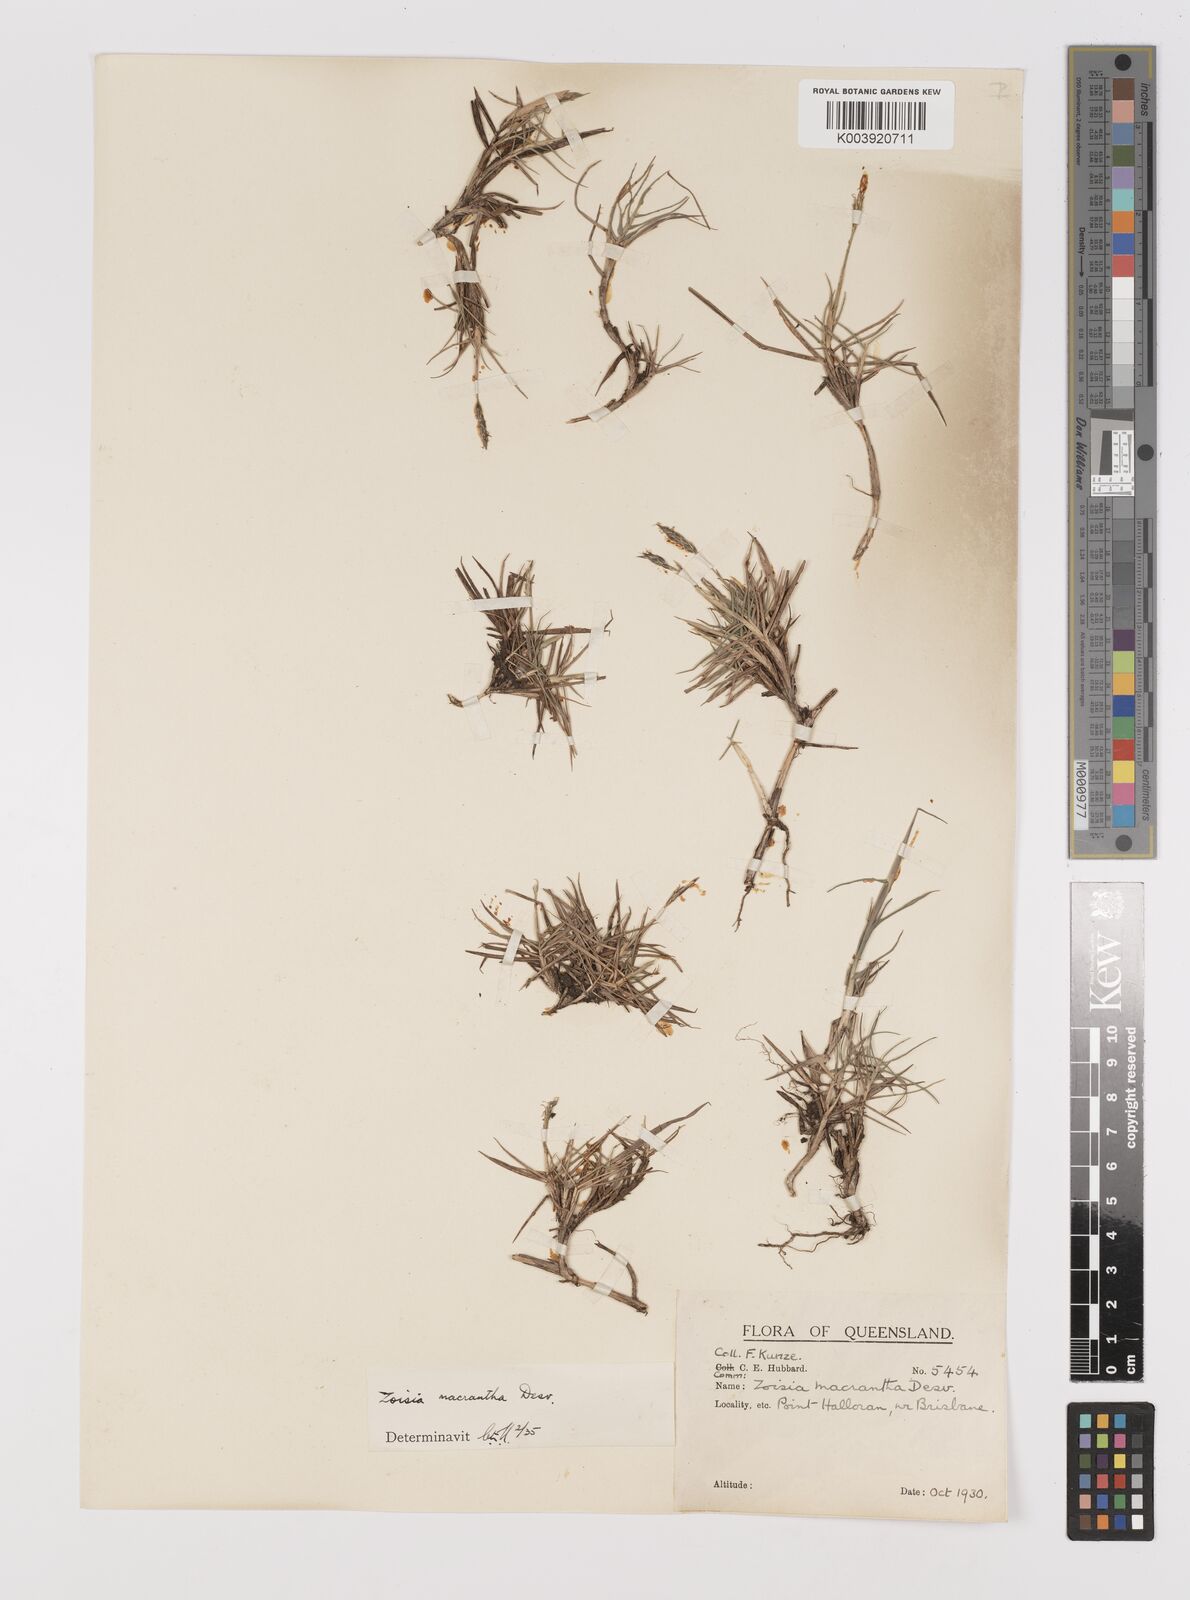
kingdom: Plantae
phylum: Tracheophyta
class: Liliopsida
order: Poales
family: Poaceae
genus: Zoysia
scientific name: Zoysia macrantha
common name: Korean lawn grass
